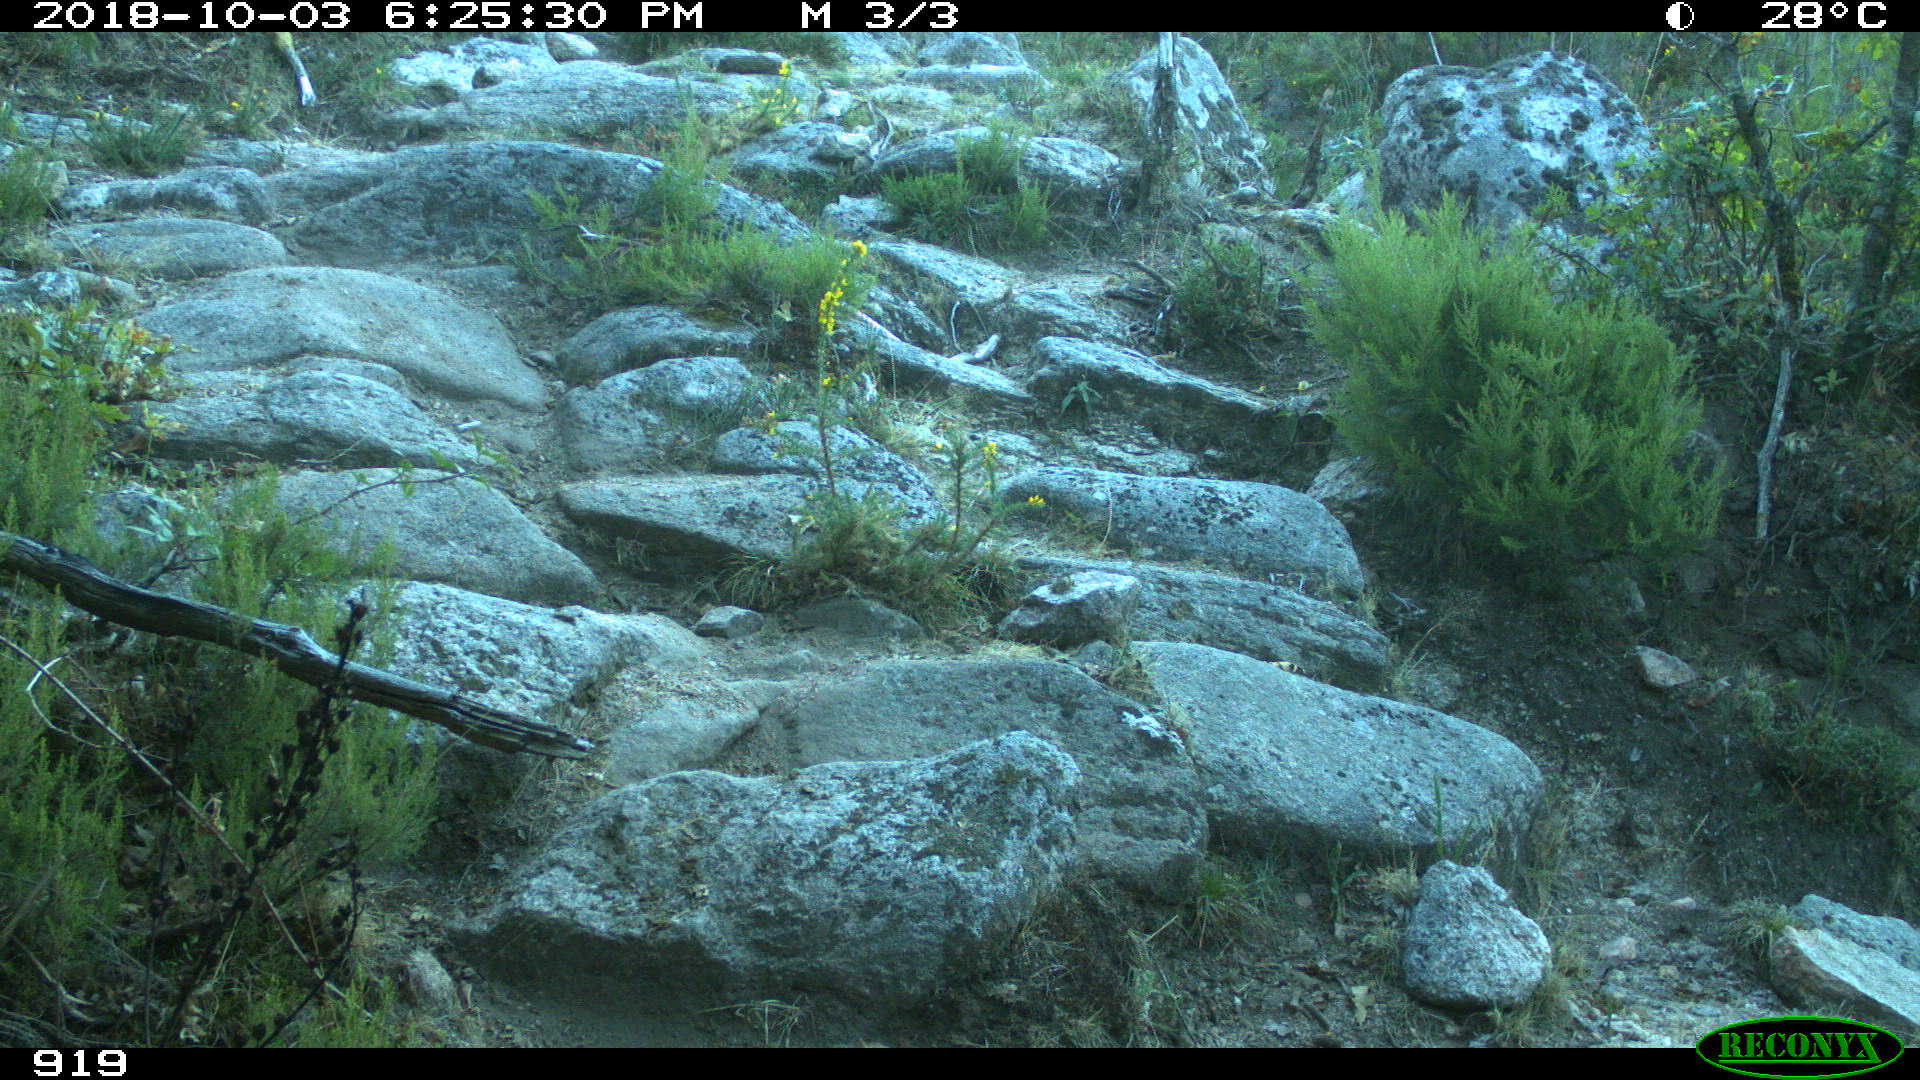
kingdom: Animalia
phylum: Chordata
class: Mammalia
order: Artiodactyla
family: Bovidae
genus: Bos
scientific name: Bos taurus
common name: Domesticated cattle
